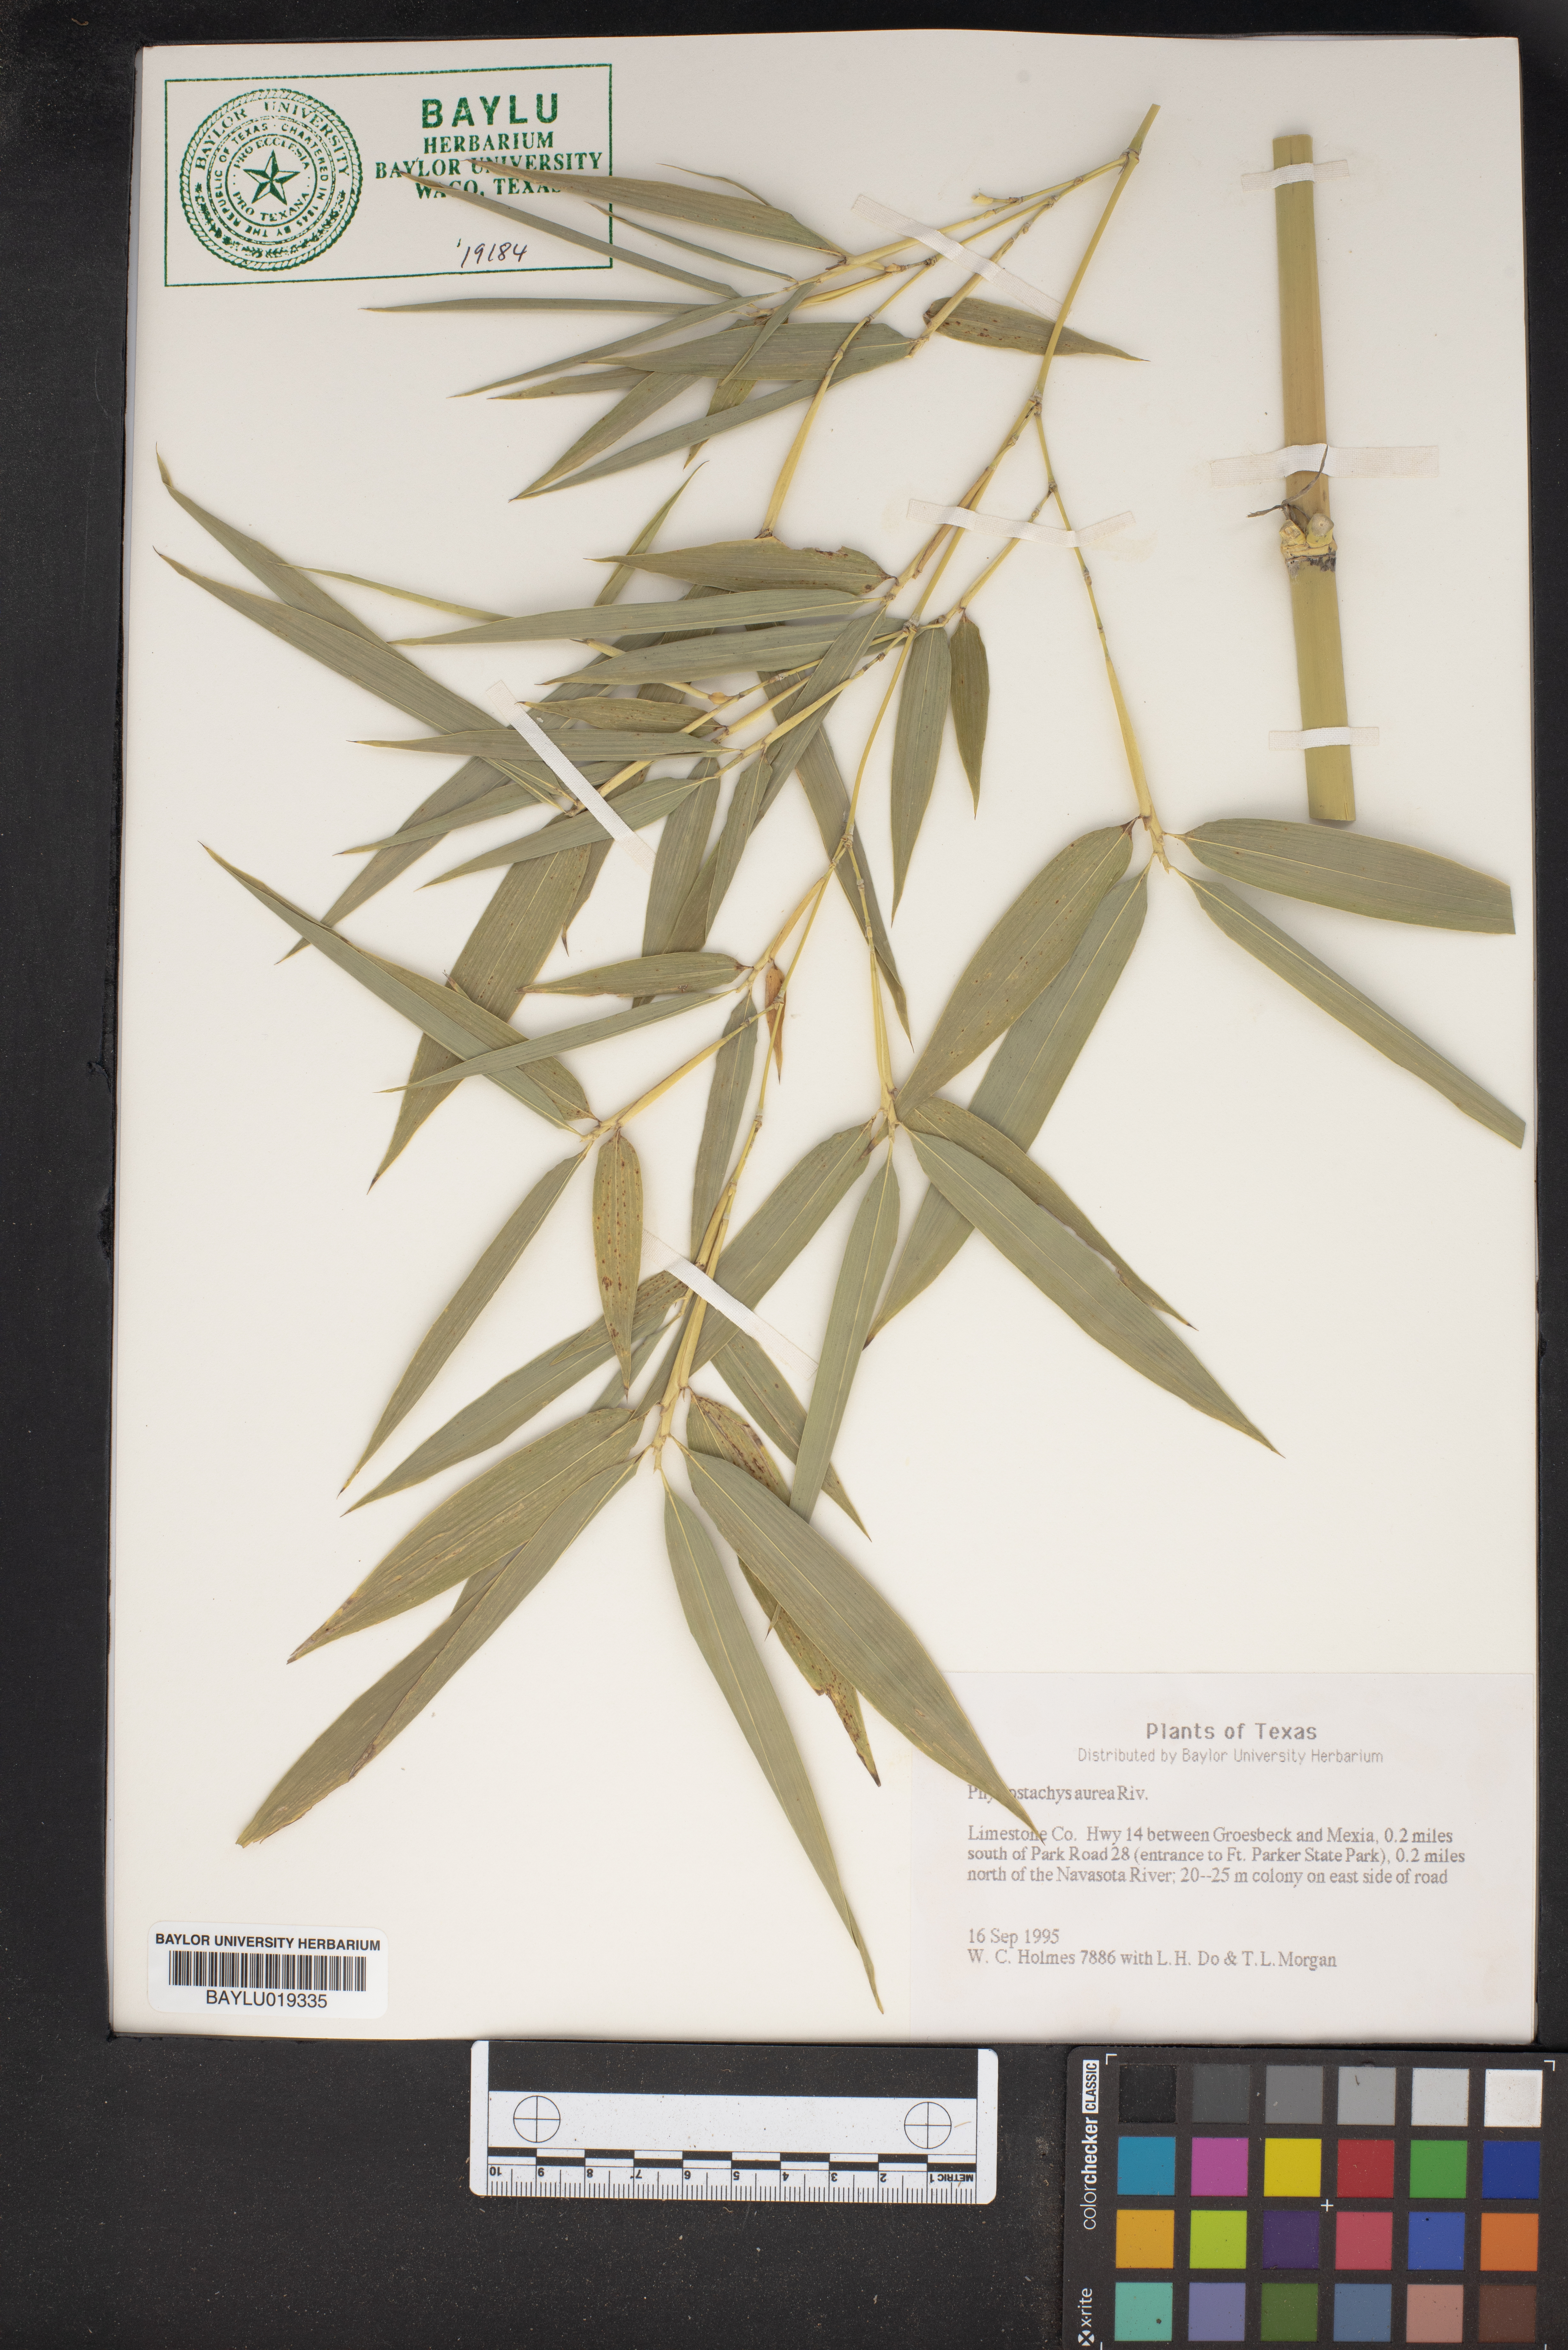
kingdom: Plantae
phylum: Tracheophyta
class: Liliopsida
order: Poales
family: Poaceae
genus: Phyllostachys
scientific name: Phyllostachys aurea
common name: Golden bamboo
